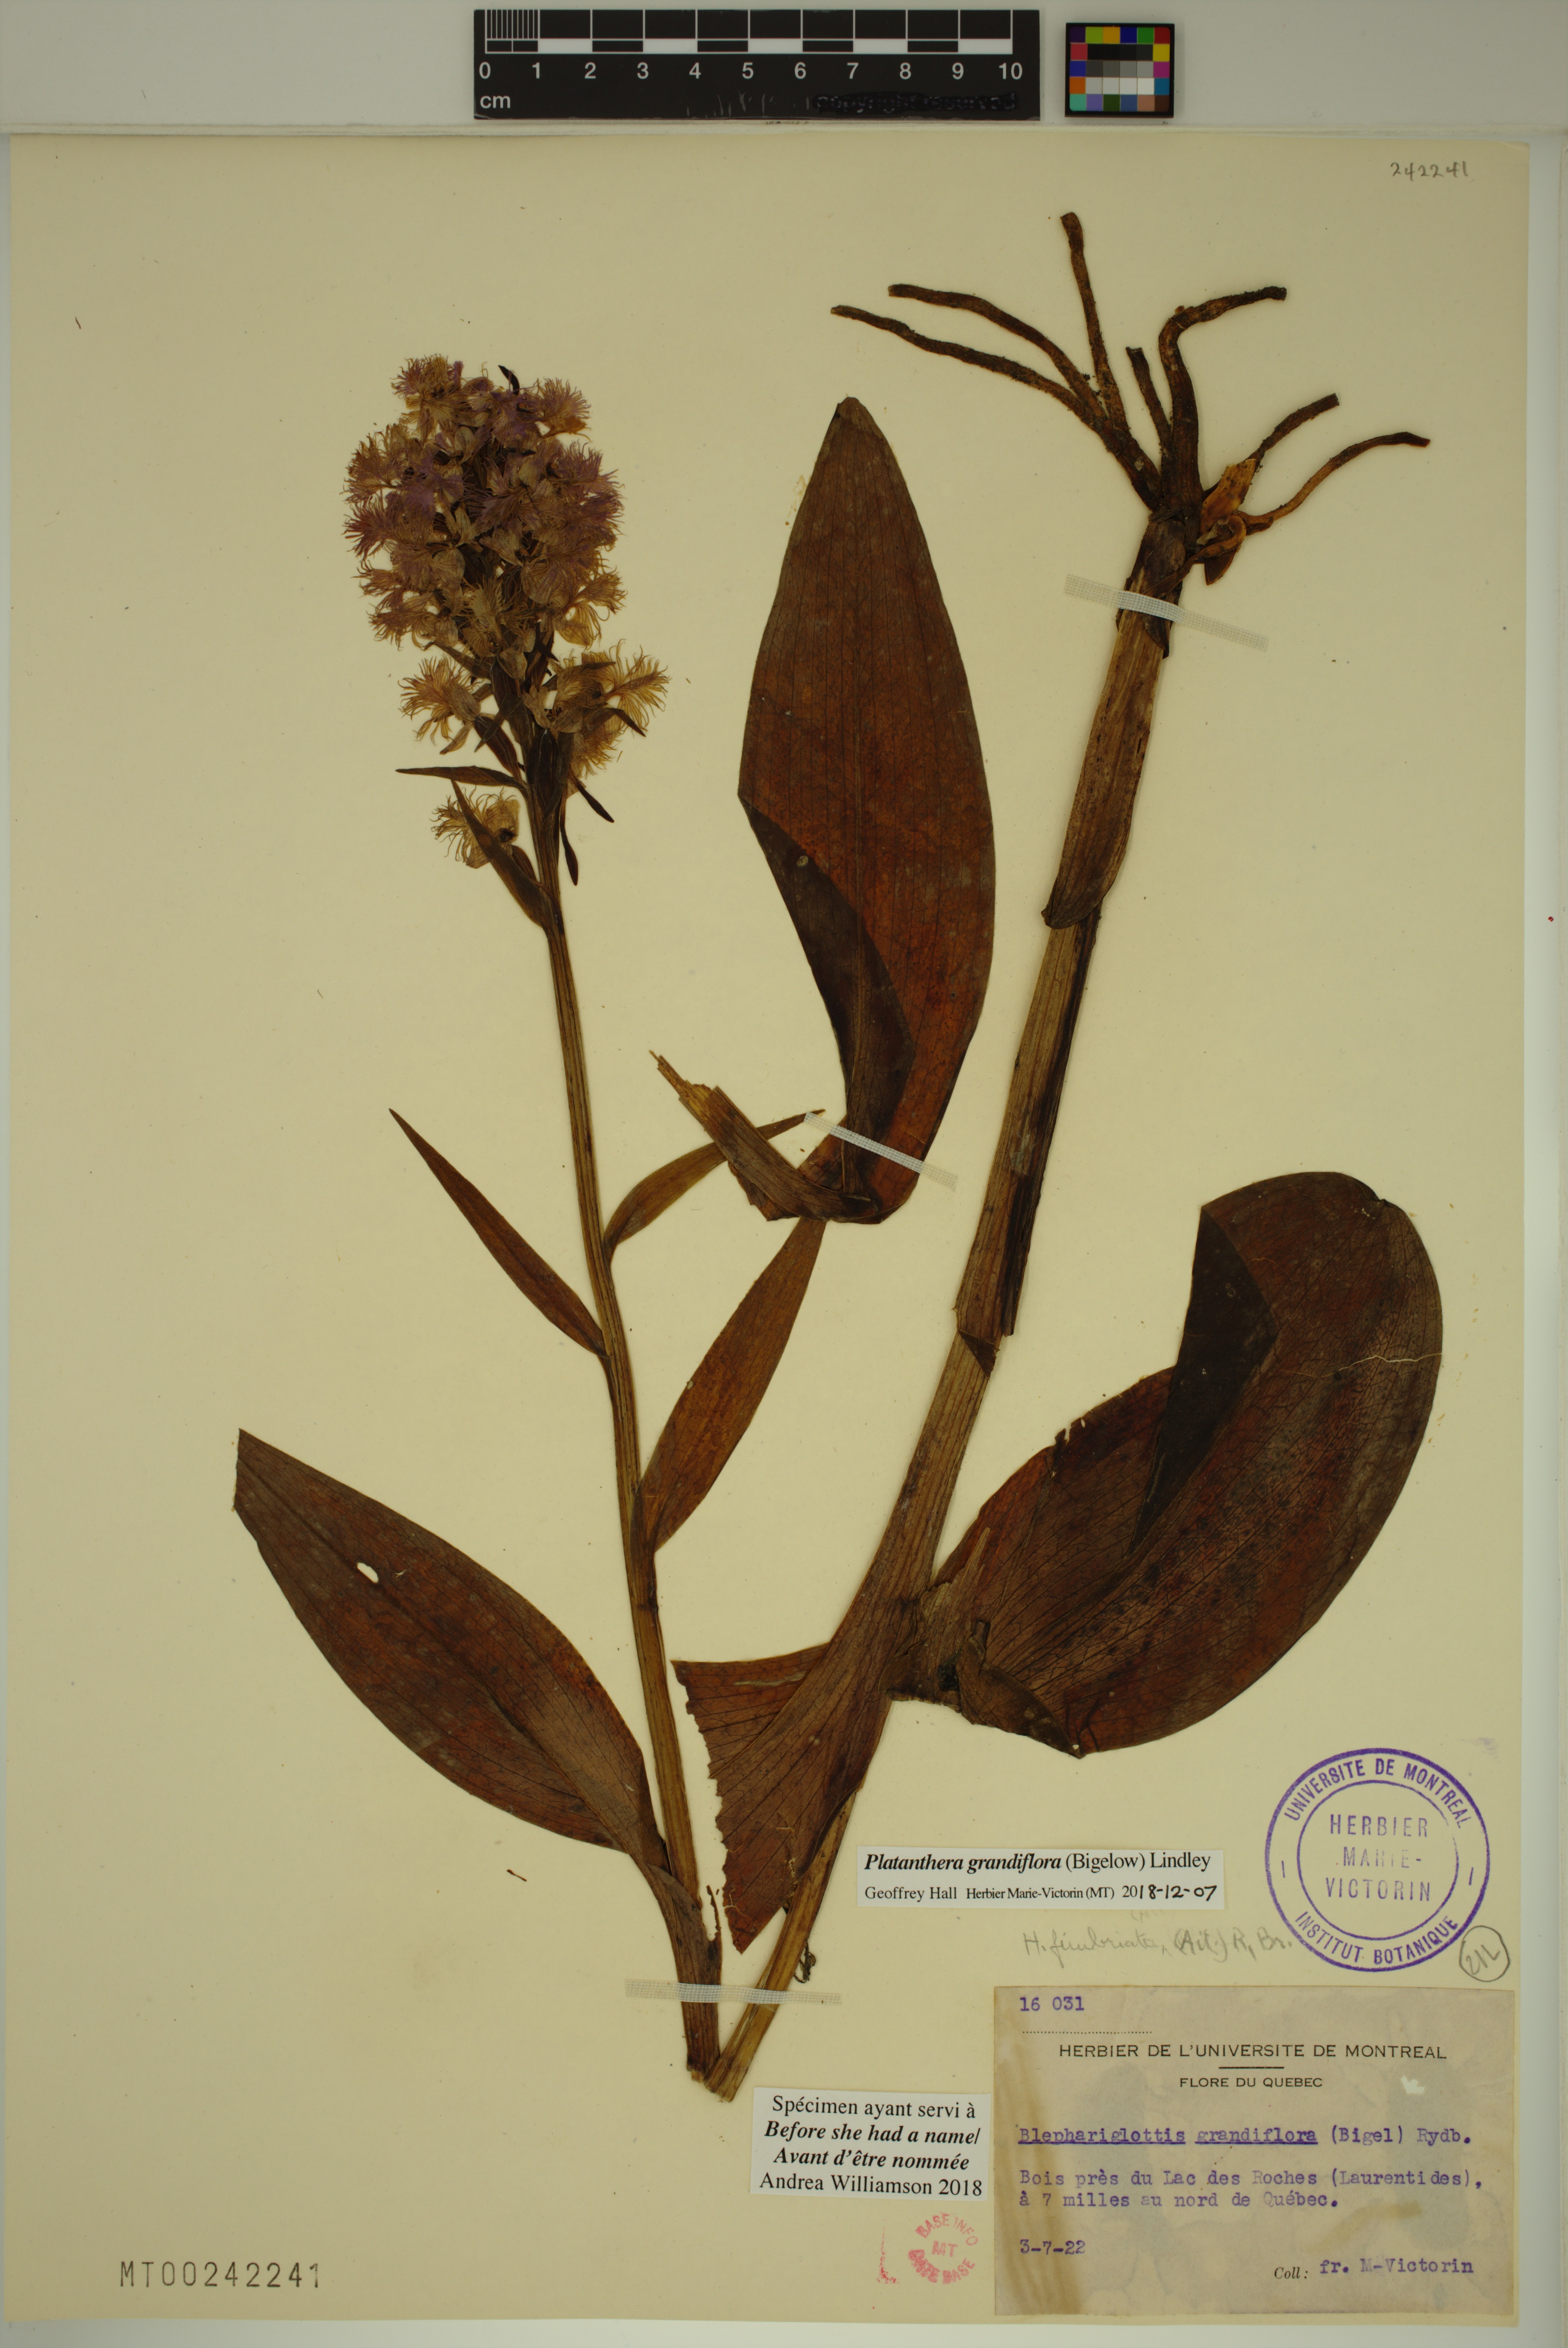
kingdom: Plantae
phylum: Tracheophyta
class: Liliopsida
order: Asparagales
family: Orchidaceae
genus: Platanthera
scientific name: Platanthera grandiflora
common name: Greater purple fringed orchid
